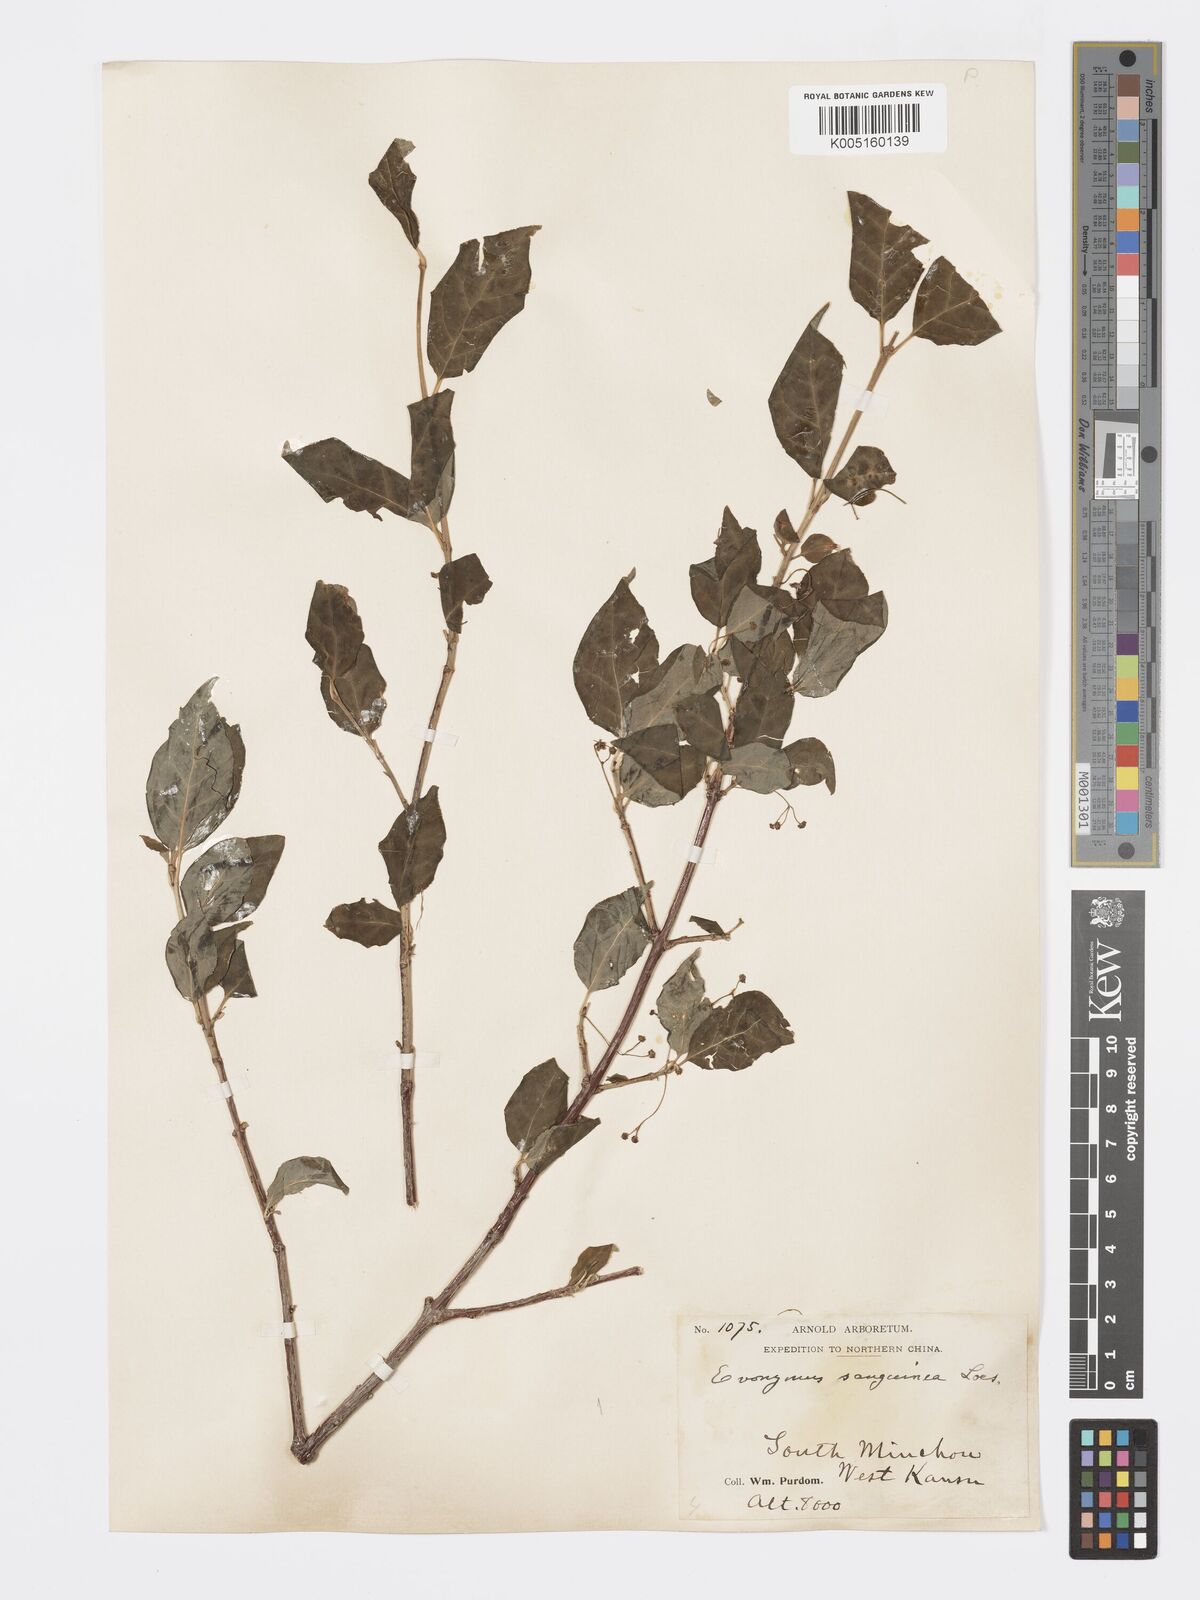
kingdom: Plantae
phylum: Tracheophyta
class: Magnoliopsida
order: Celastrales
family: Celastraceae
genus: Euonymus
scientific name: Euonymus frigidus
